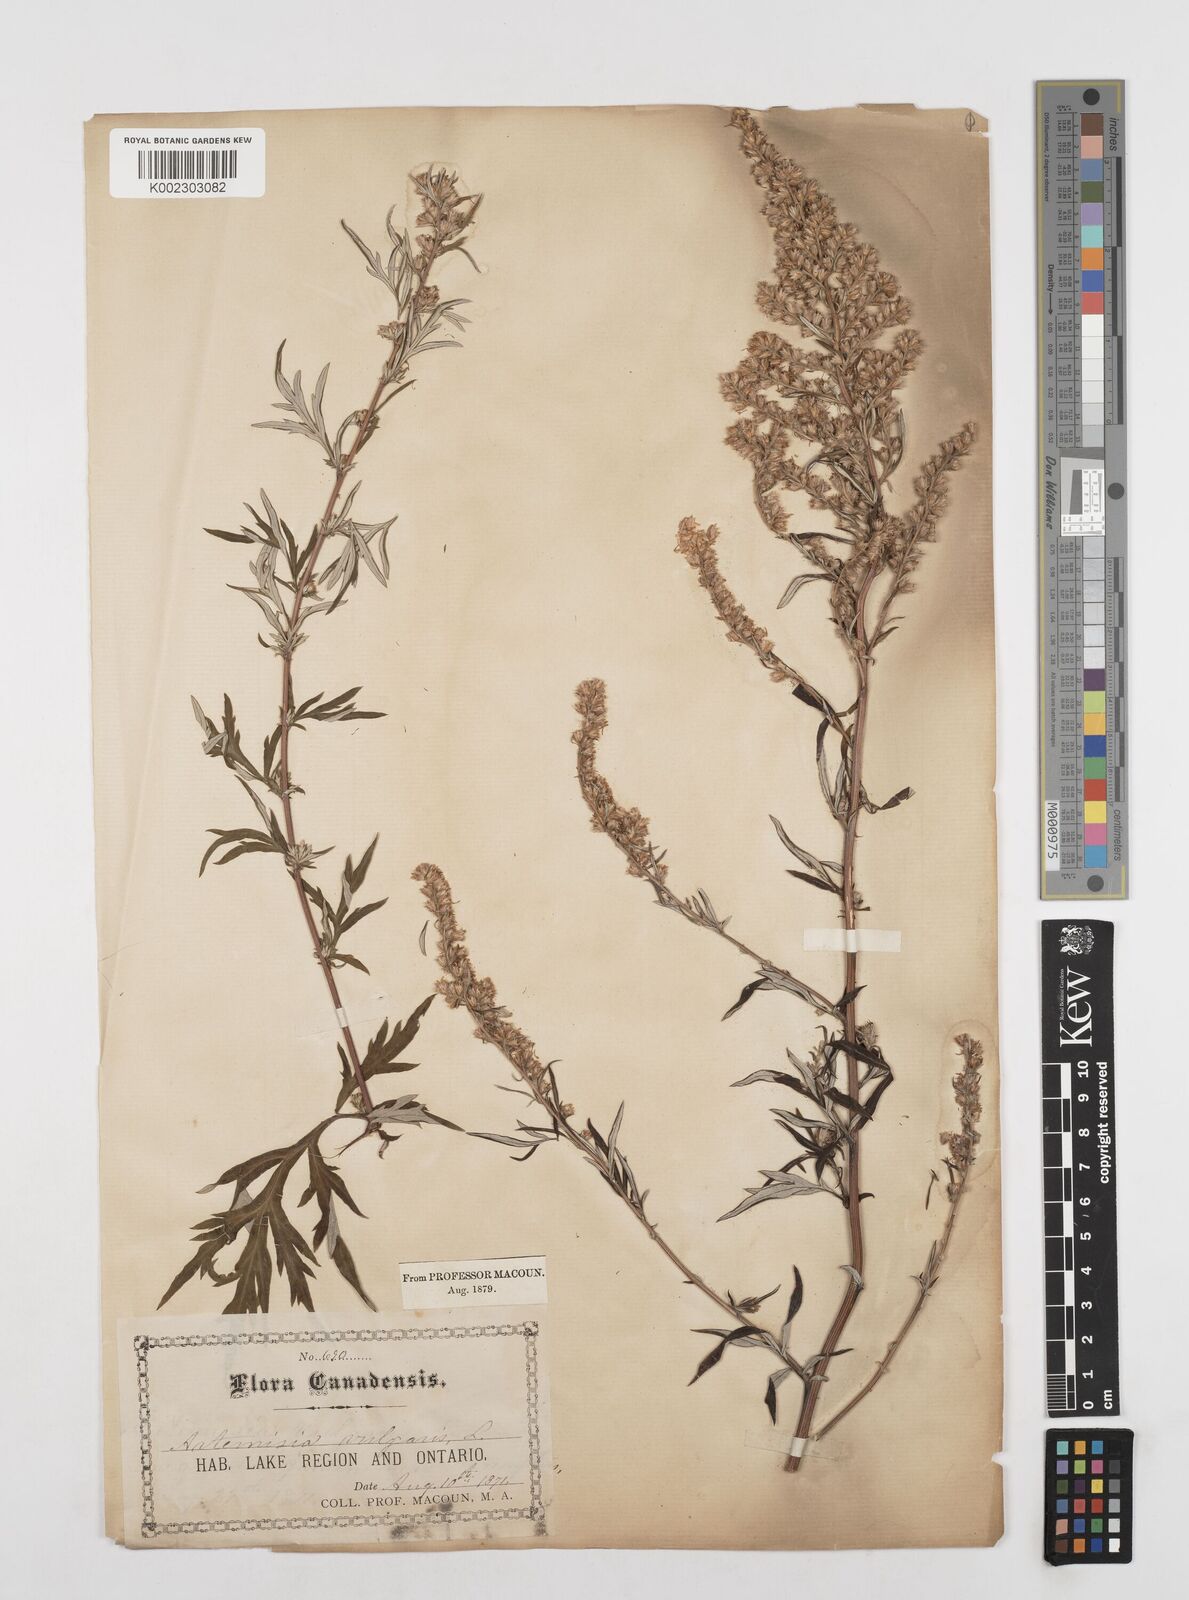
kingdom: Plantae
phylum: Tracheophyta
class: Magnoliopsida
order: Asterales
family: Asteraceae
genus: Artemisia
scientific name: Artemisia vulgaris
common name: Mugwort
